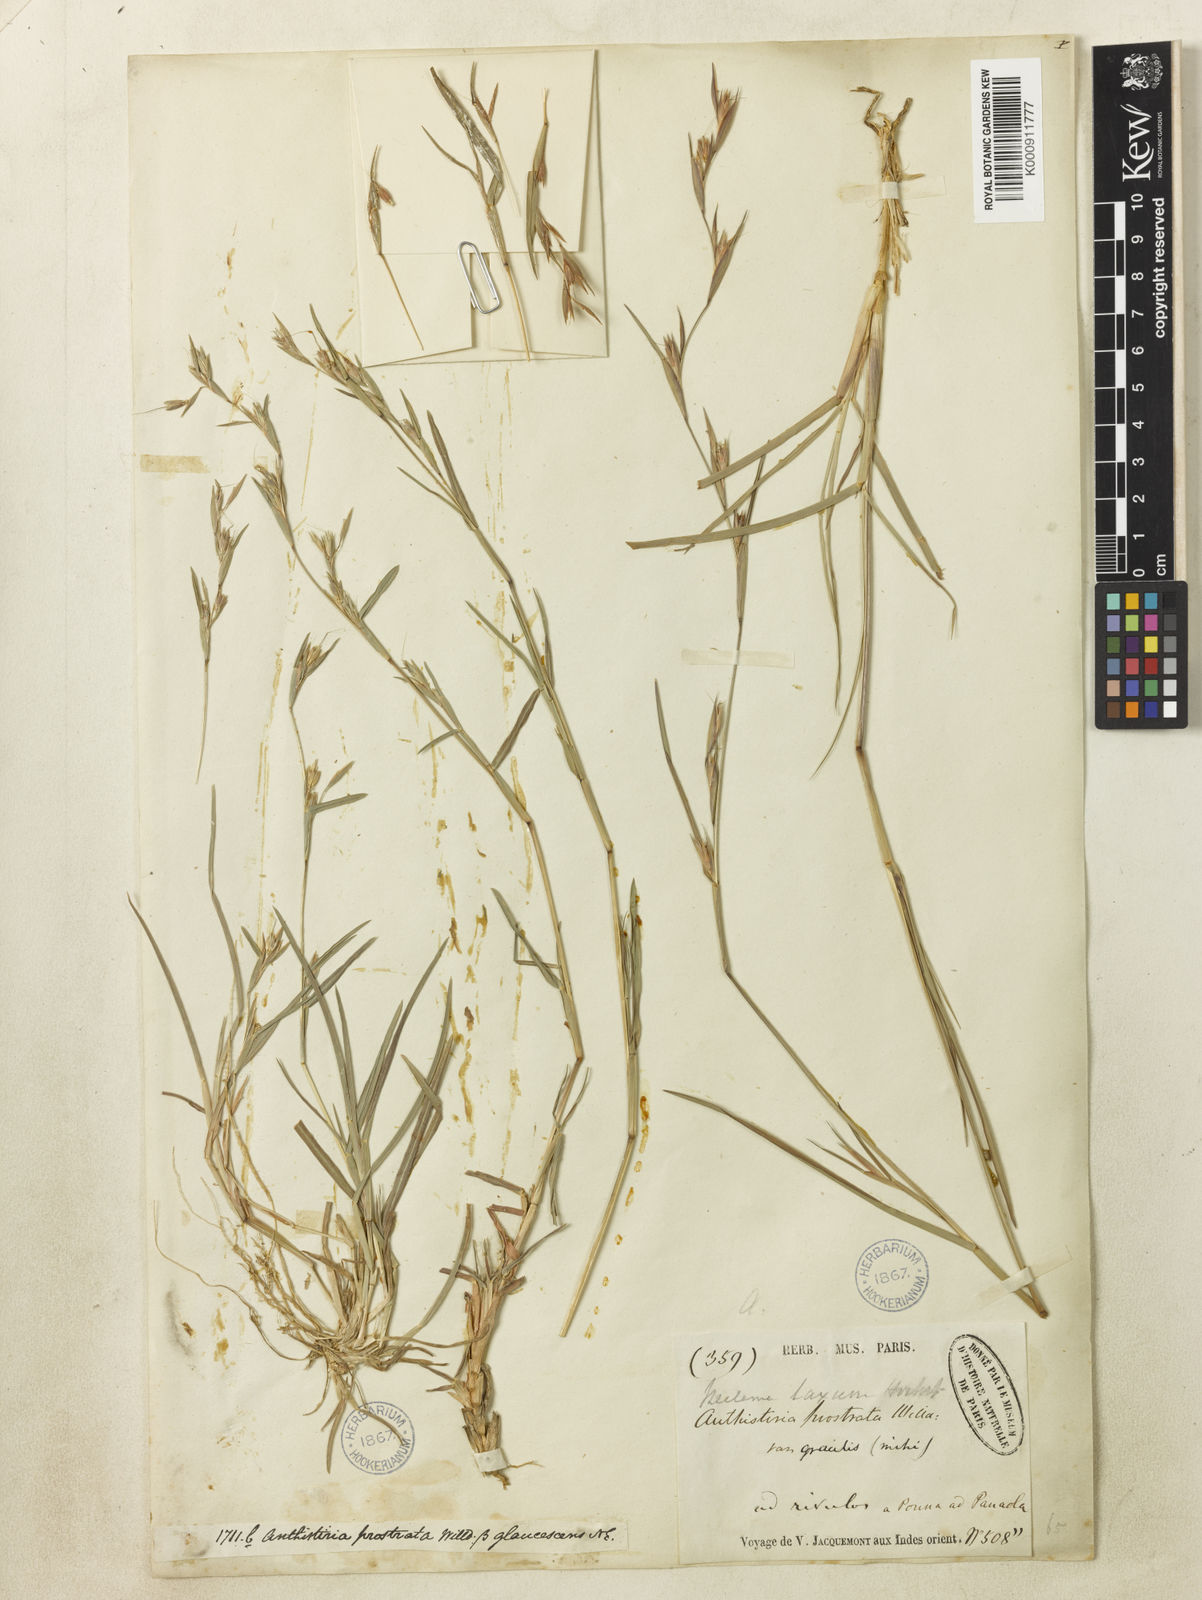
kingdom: Plantae
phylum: Tracheophyta
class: Liliopsida
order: Poales
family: Poaceae
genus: Iseilema
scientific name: Iseilema prostratum
